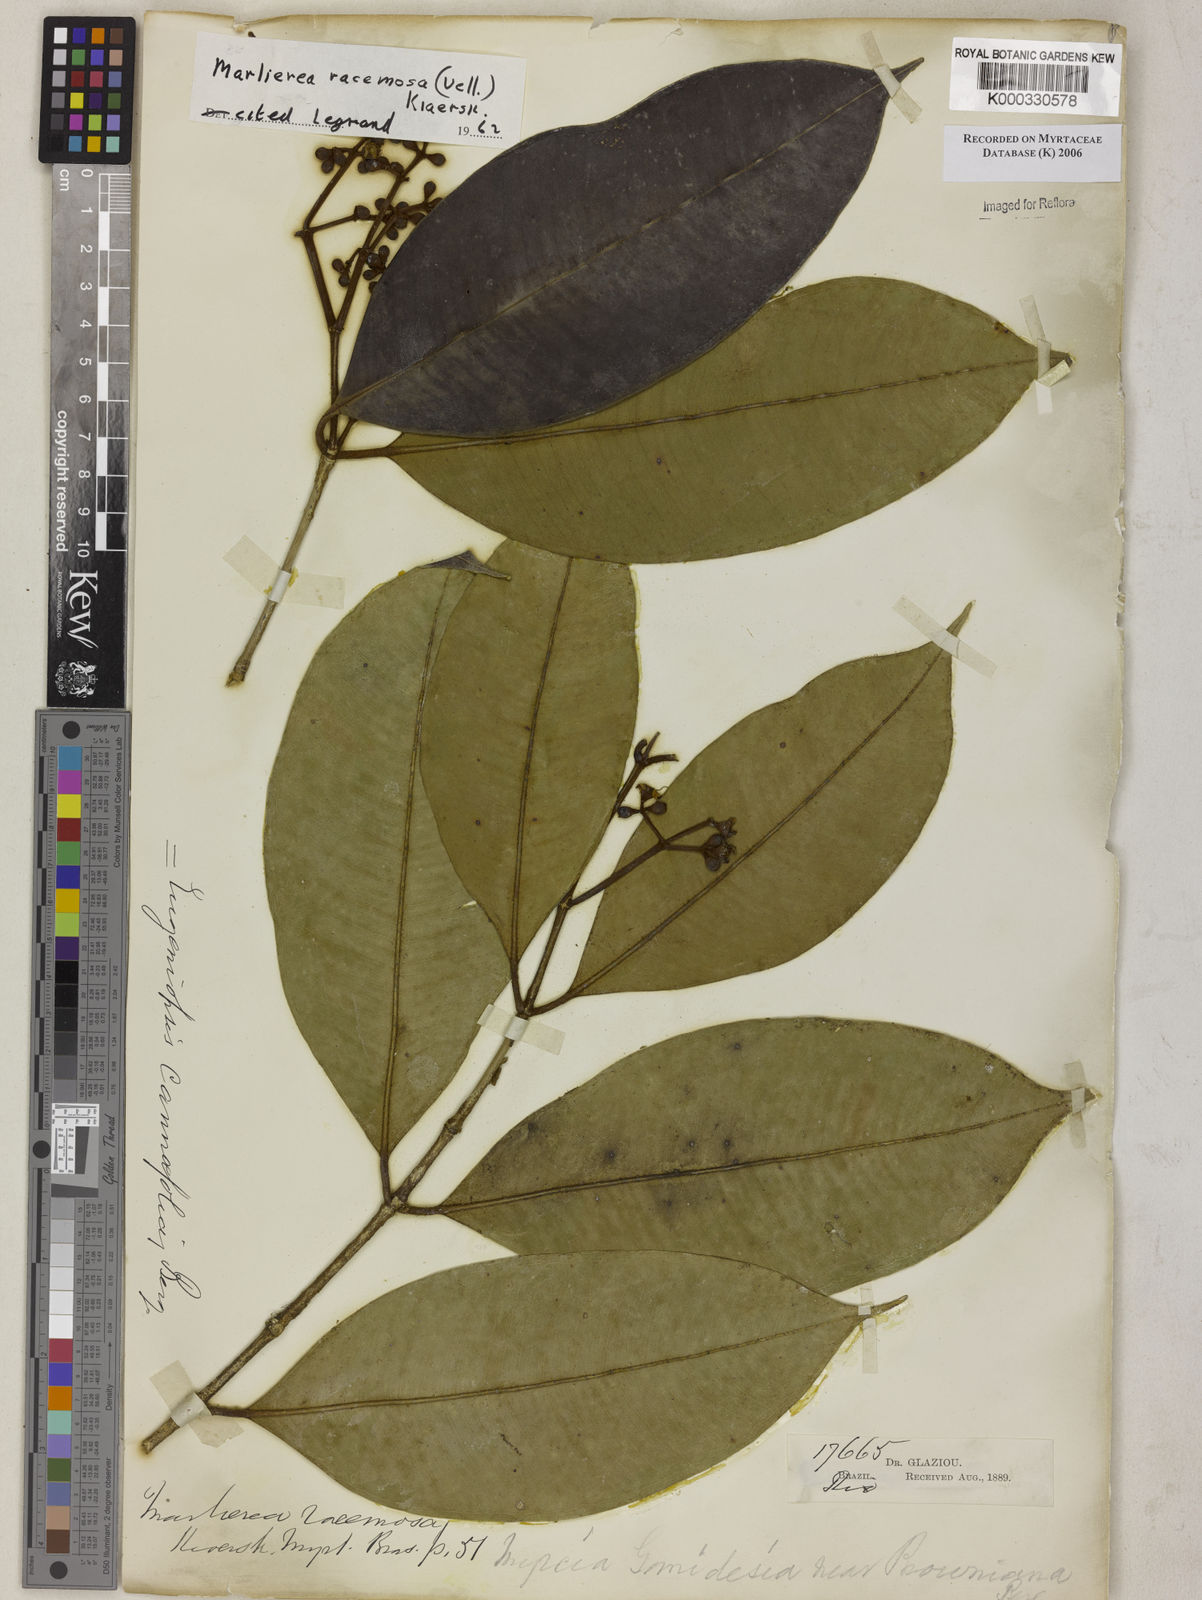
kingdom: Plantae
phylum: Tracheophyta
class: Magnoliopsida
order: Myrtales
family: Myrtaceae
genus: Myrcia
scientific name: Myrcia vellozoi
